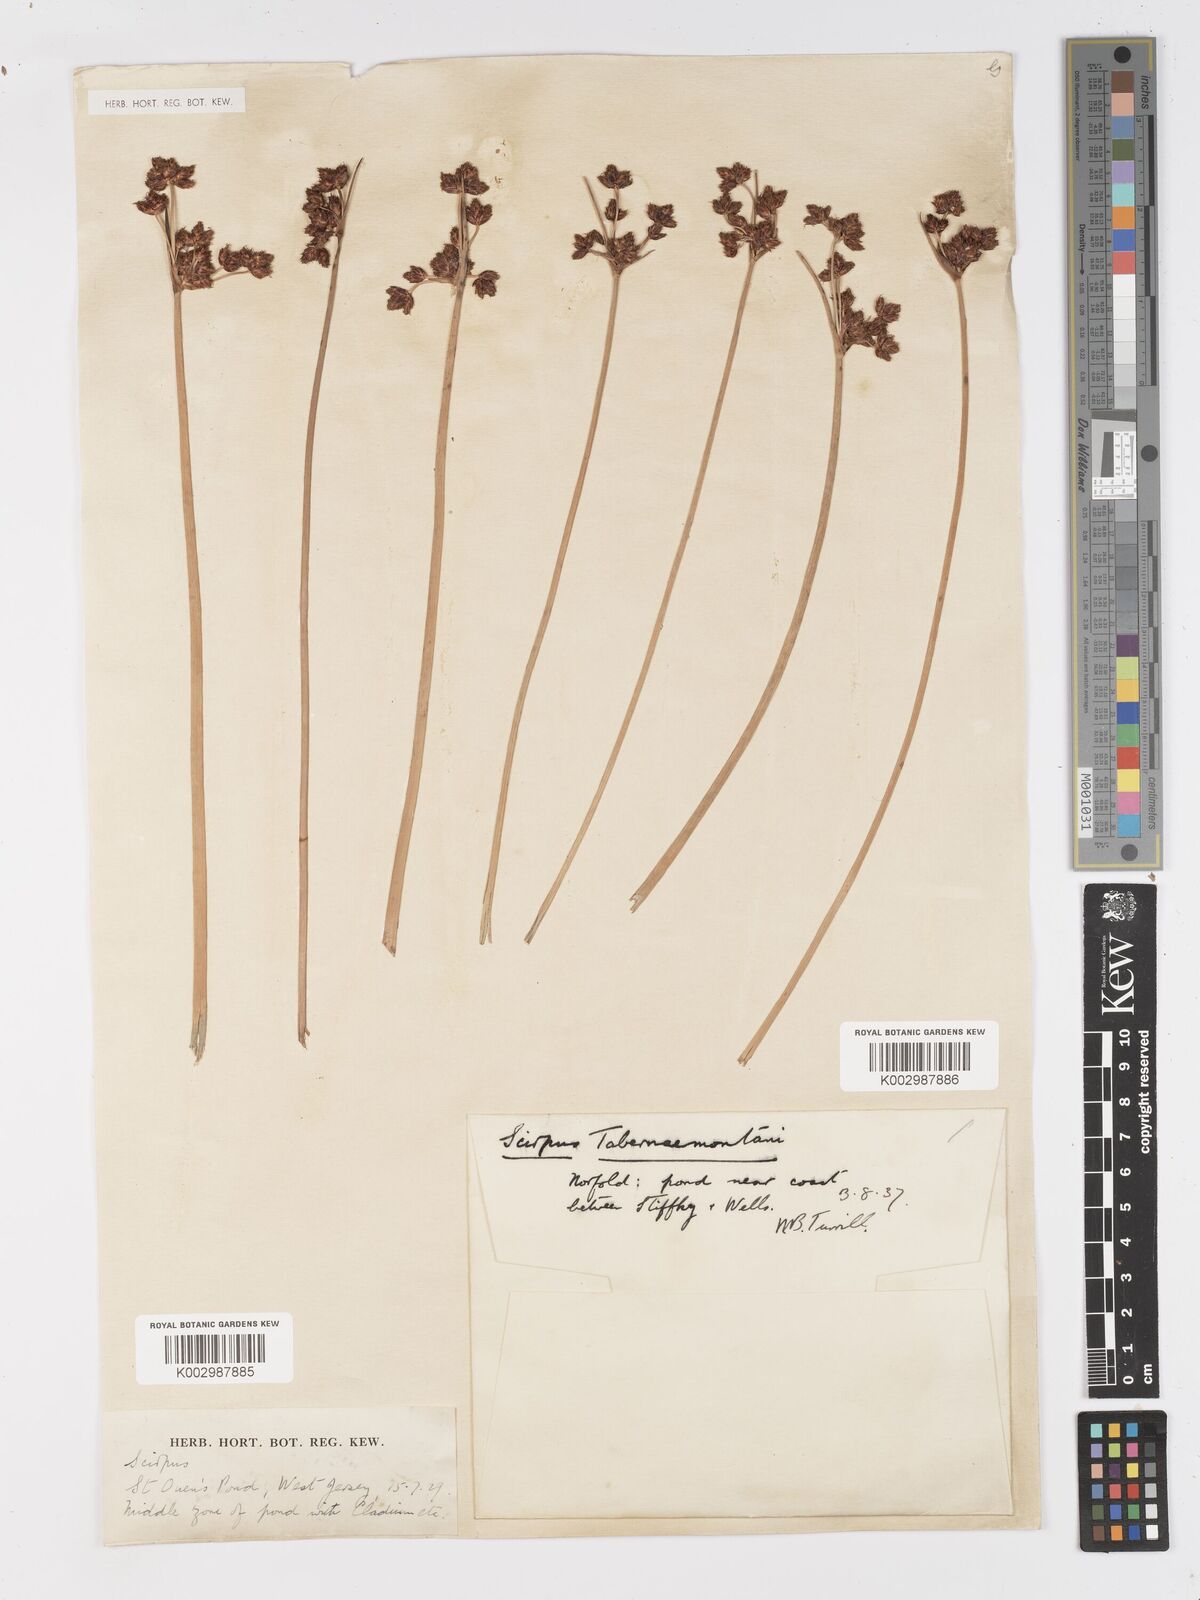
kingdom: Plantae
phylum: Tracheophyta
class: Liliopsida
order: Poales
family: Cyperaceae
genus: Schoenoplectus
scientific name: Schoenoplectus tabernaemontani
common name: Grey club-rush
